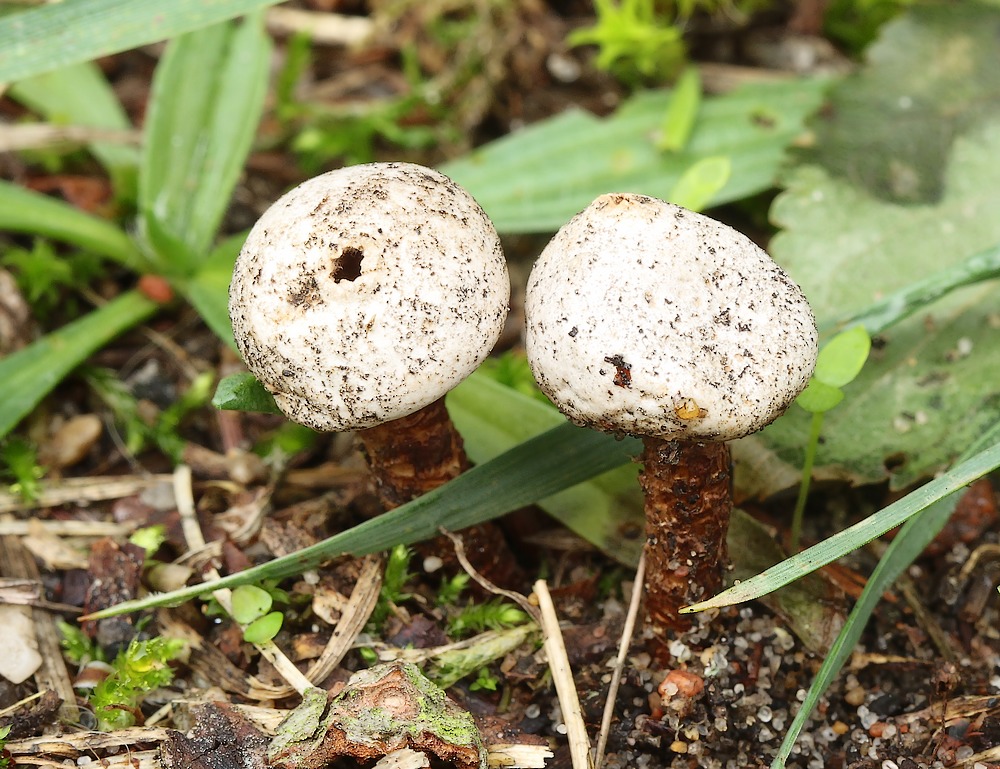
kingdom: Fungi
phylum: Basidiomycota
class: Agaricomycetes
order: Agaricales
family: Agaricaceae
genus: Tulostoma
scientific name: Tulostoma
